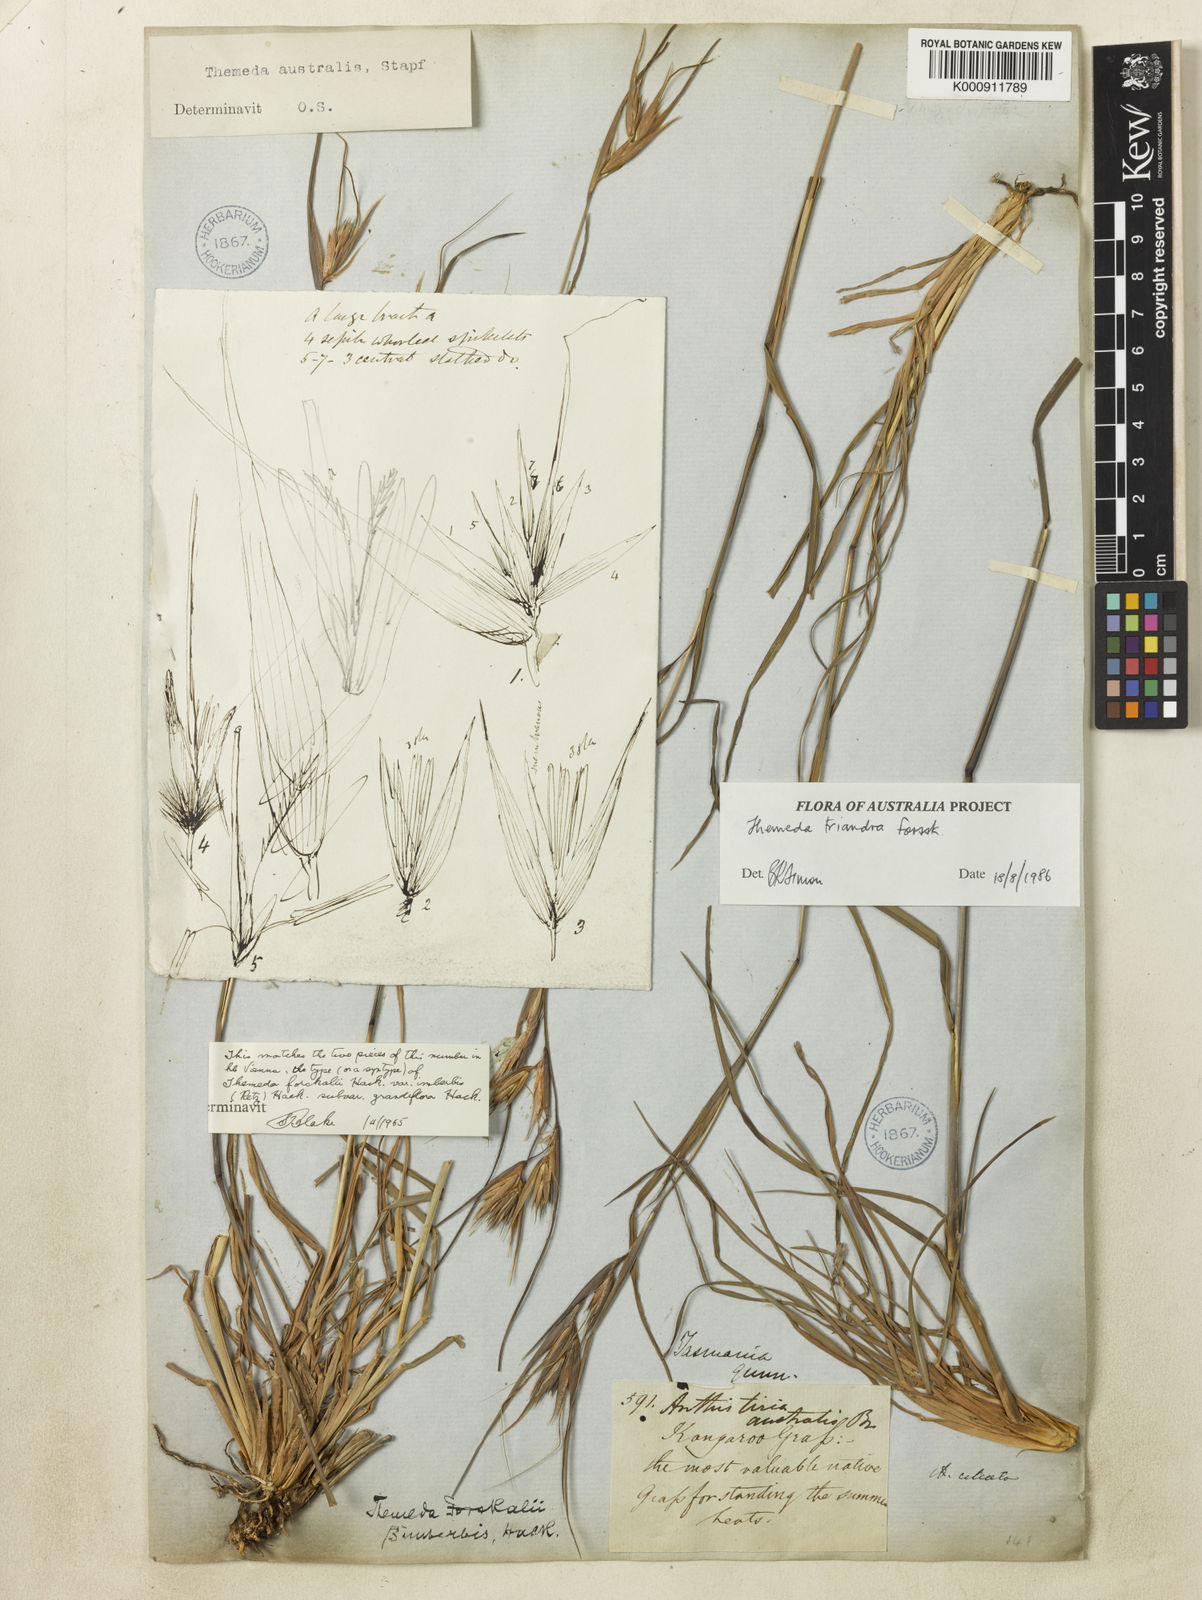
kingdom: Plantae
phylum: Tracheophyta
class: Liliopsida
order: Poales
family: Poaceae
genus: Themeda
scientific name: Themeda triandra
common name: Kangaroo grass
